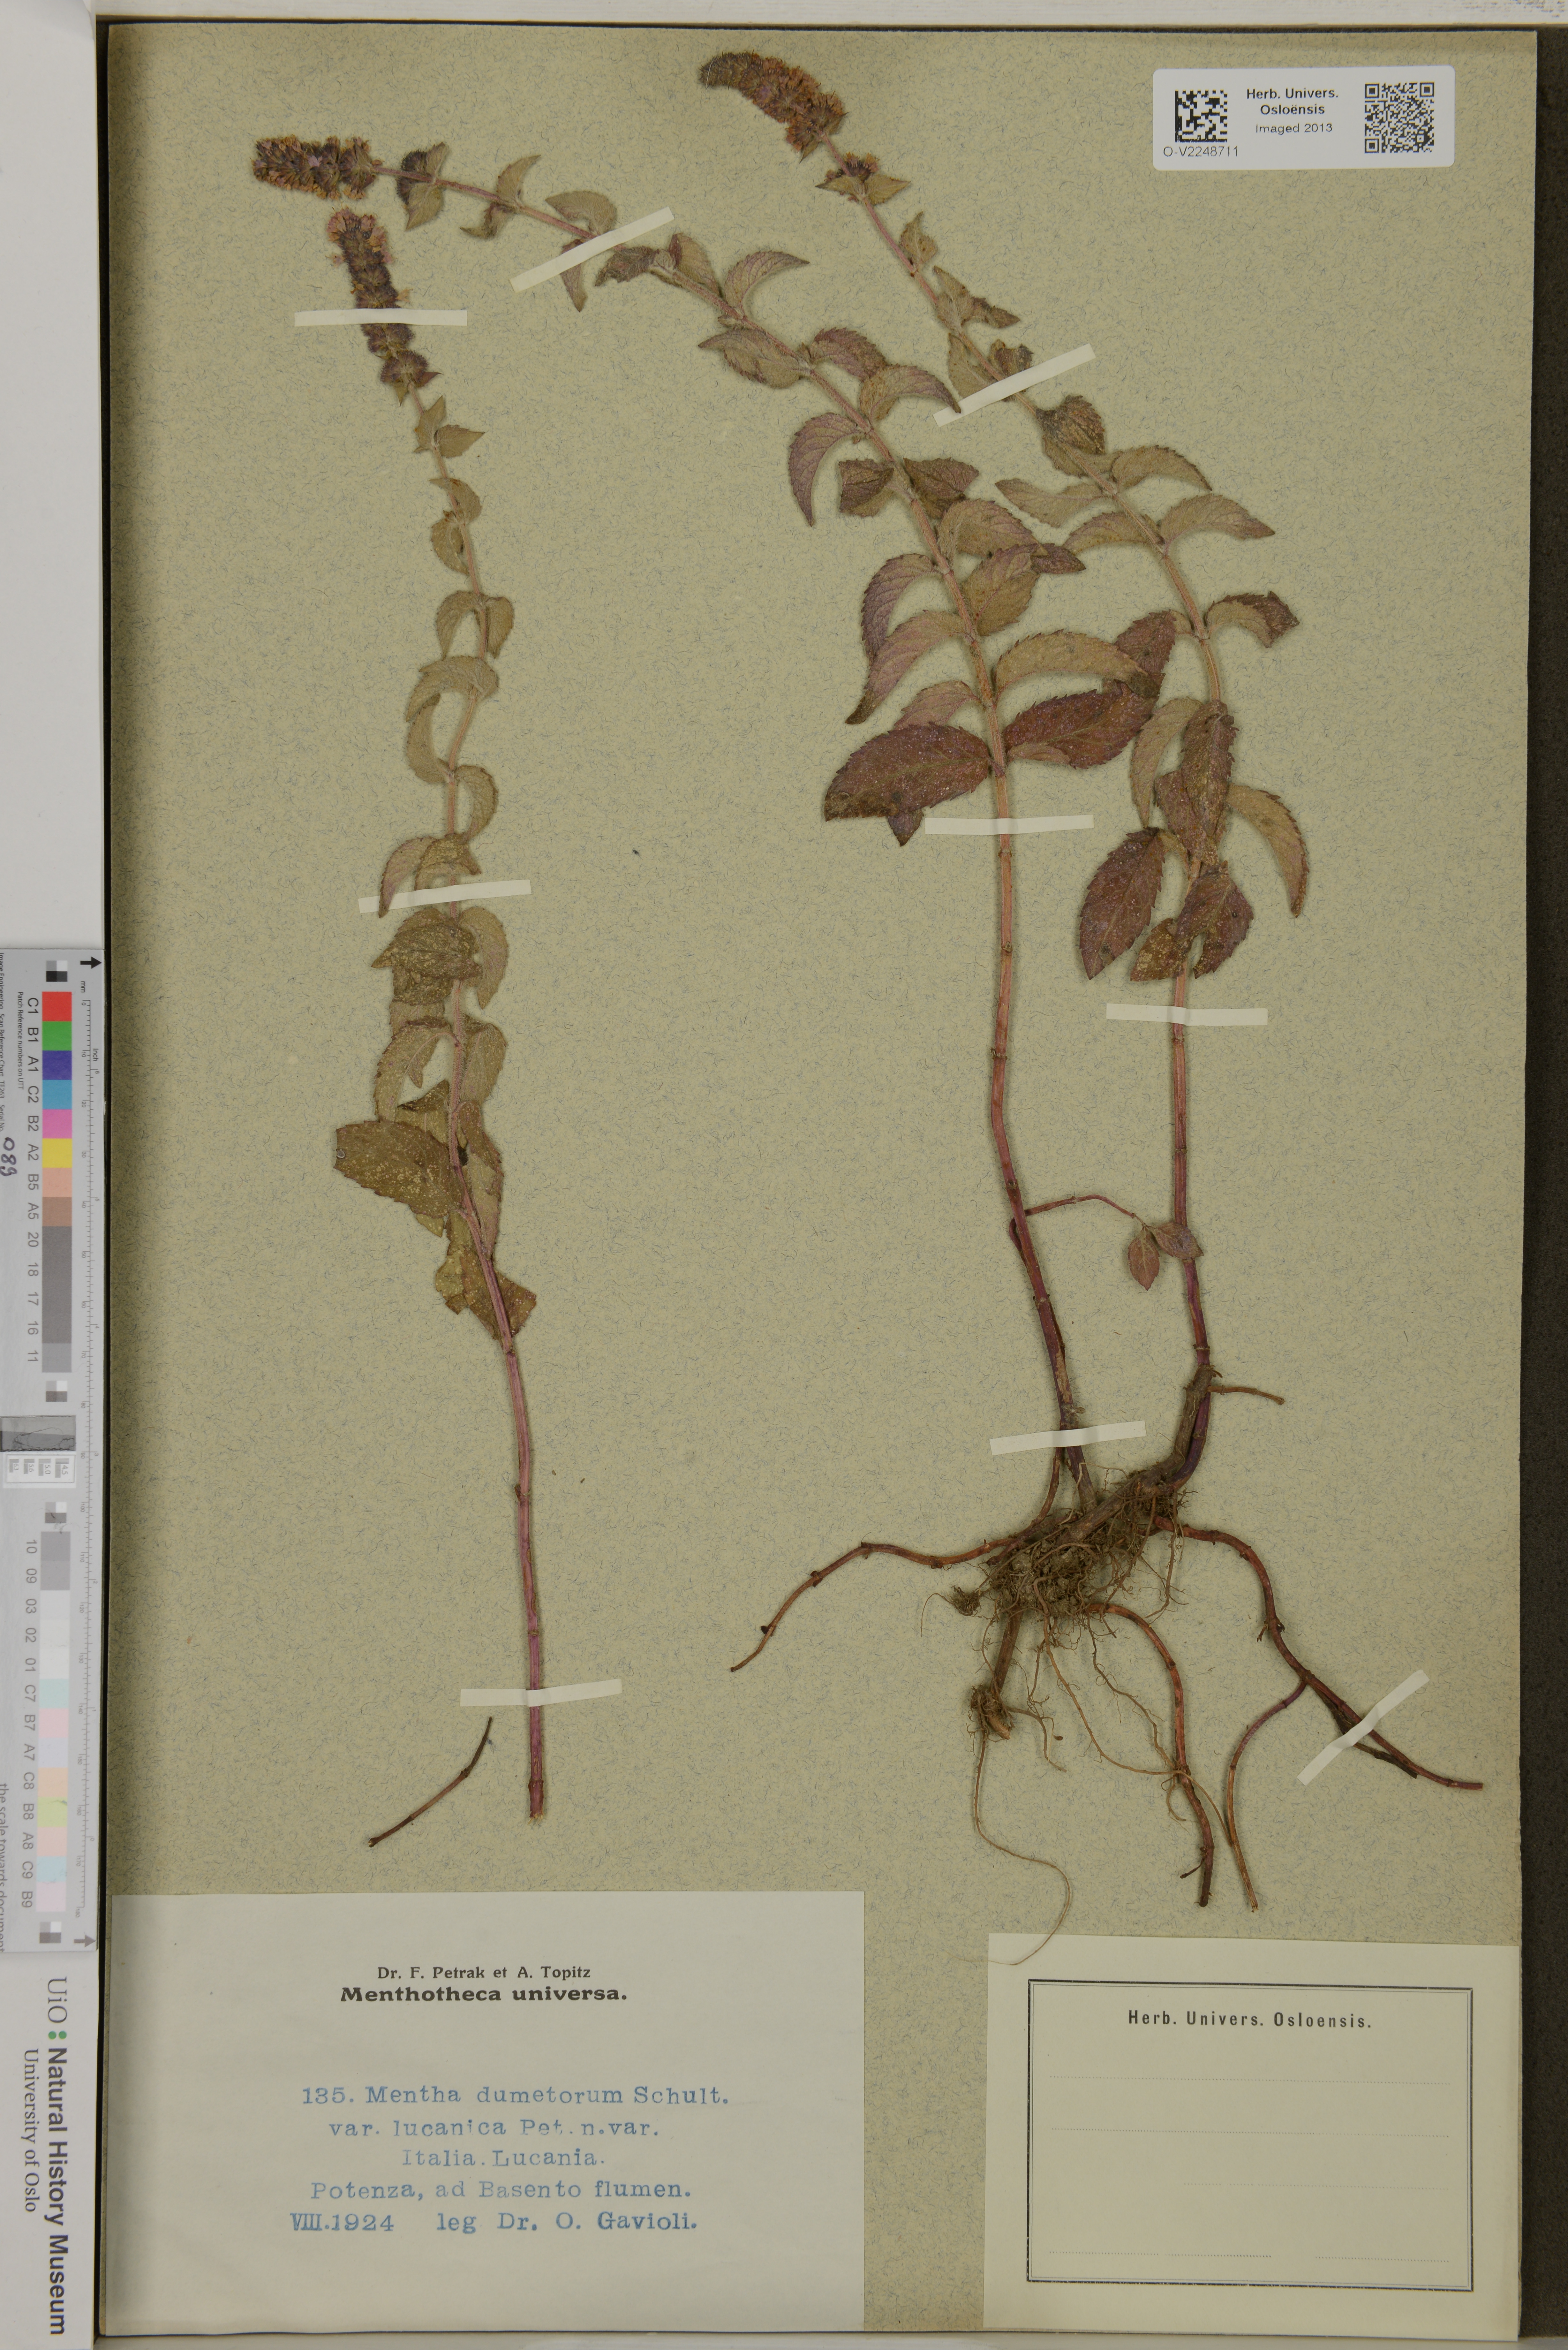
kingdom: Plantae
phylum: Tracheophyta
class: Magnoliopsida
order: Lamiales
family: Lamiaceae
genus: Mentha
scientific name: Mentha dumetorum
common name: Bush-loving mint
